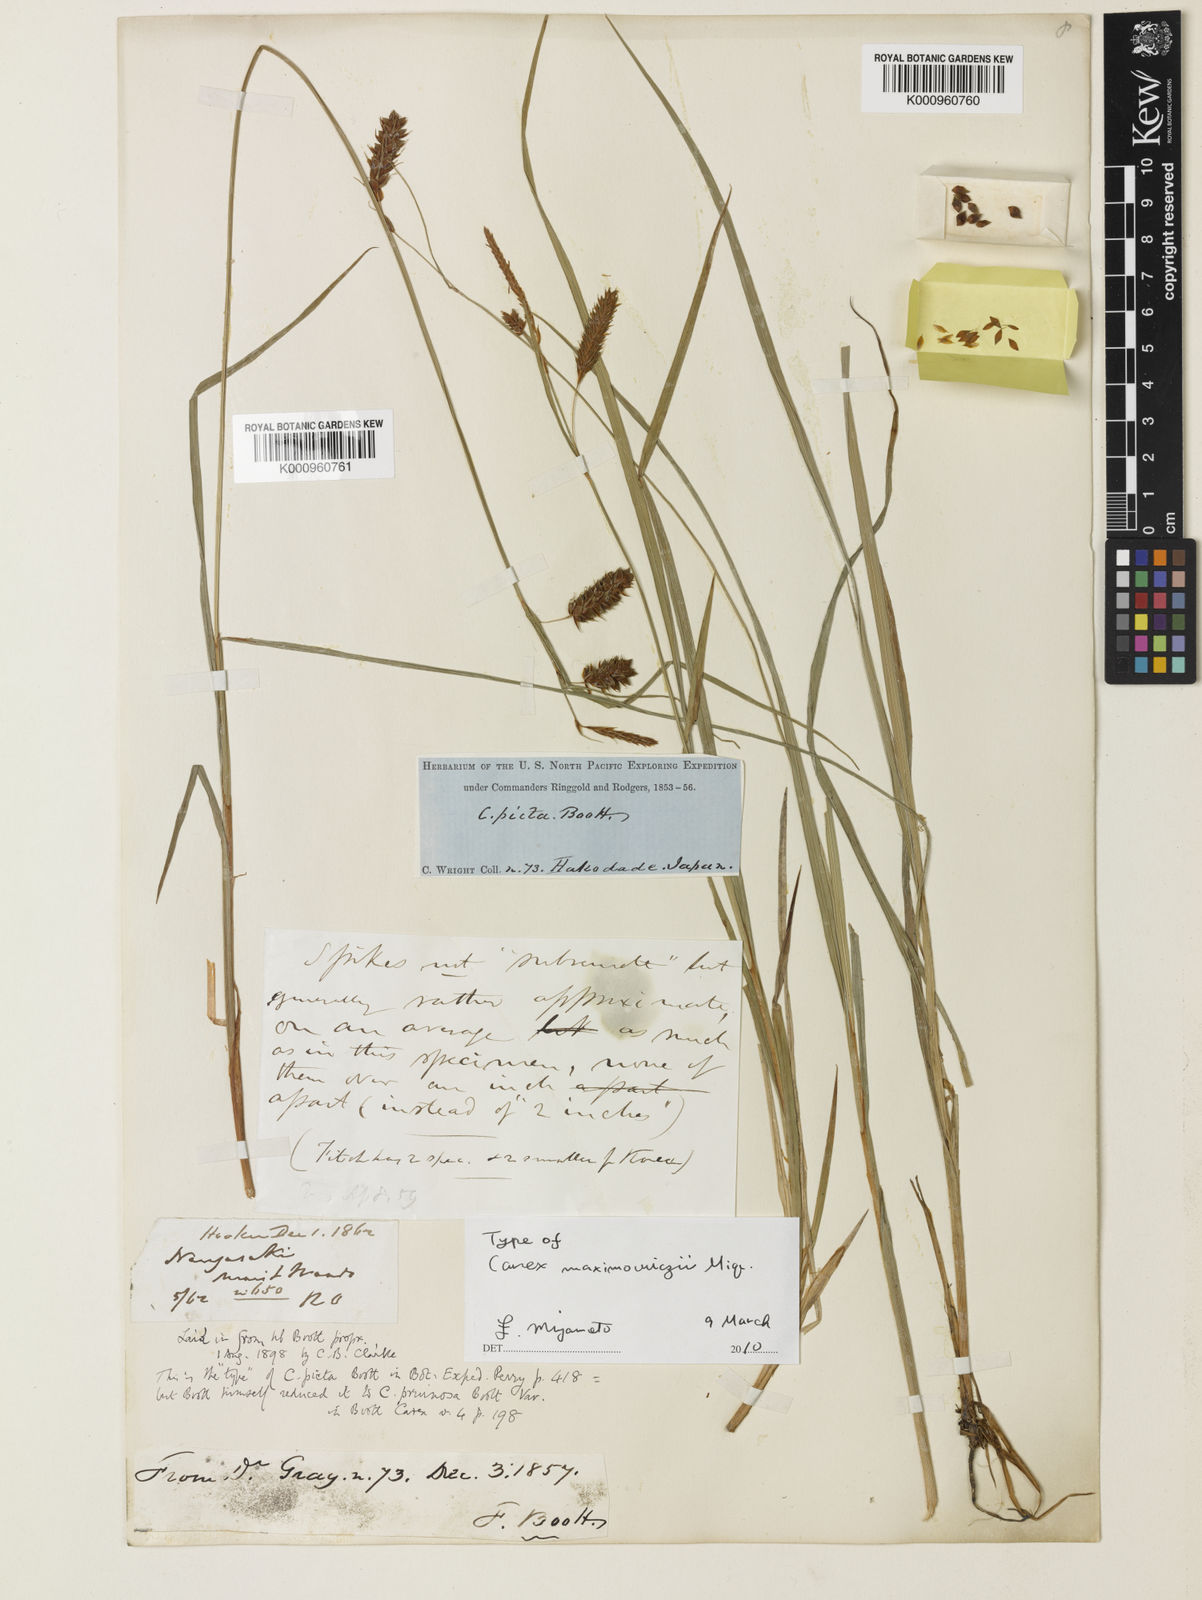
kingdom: Plantae
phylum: Tracheophyta
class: Liliopsida
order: Poales
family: Cyperaceae
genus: Carex
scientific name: Carex pruinosa
